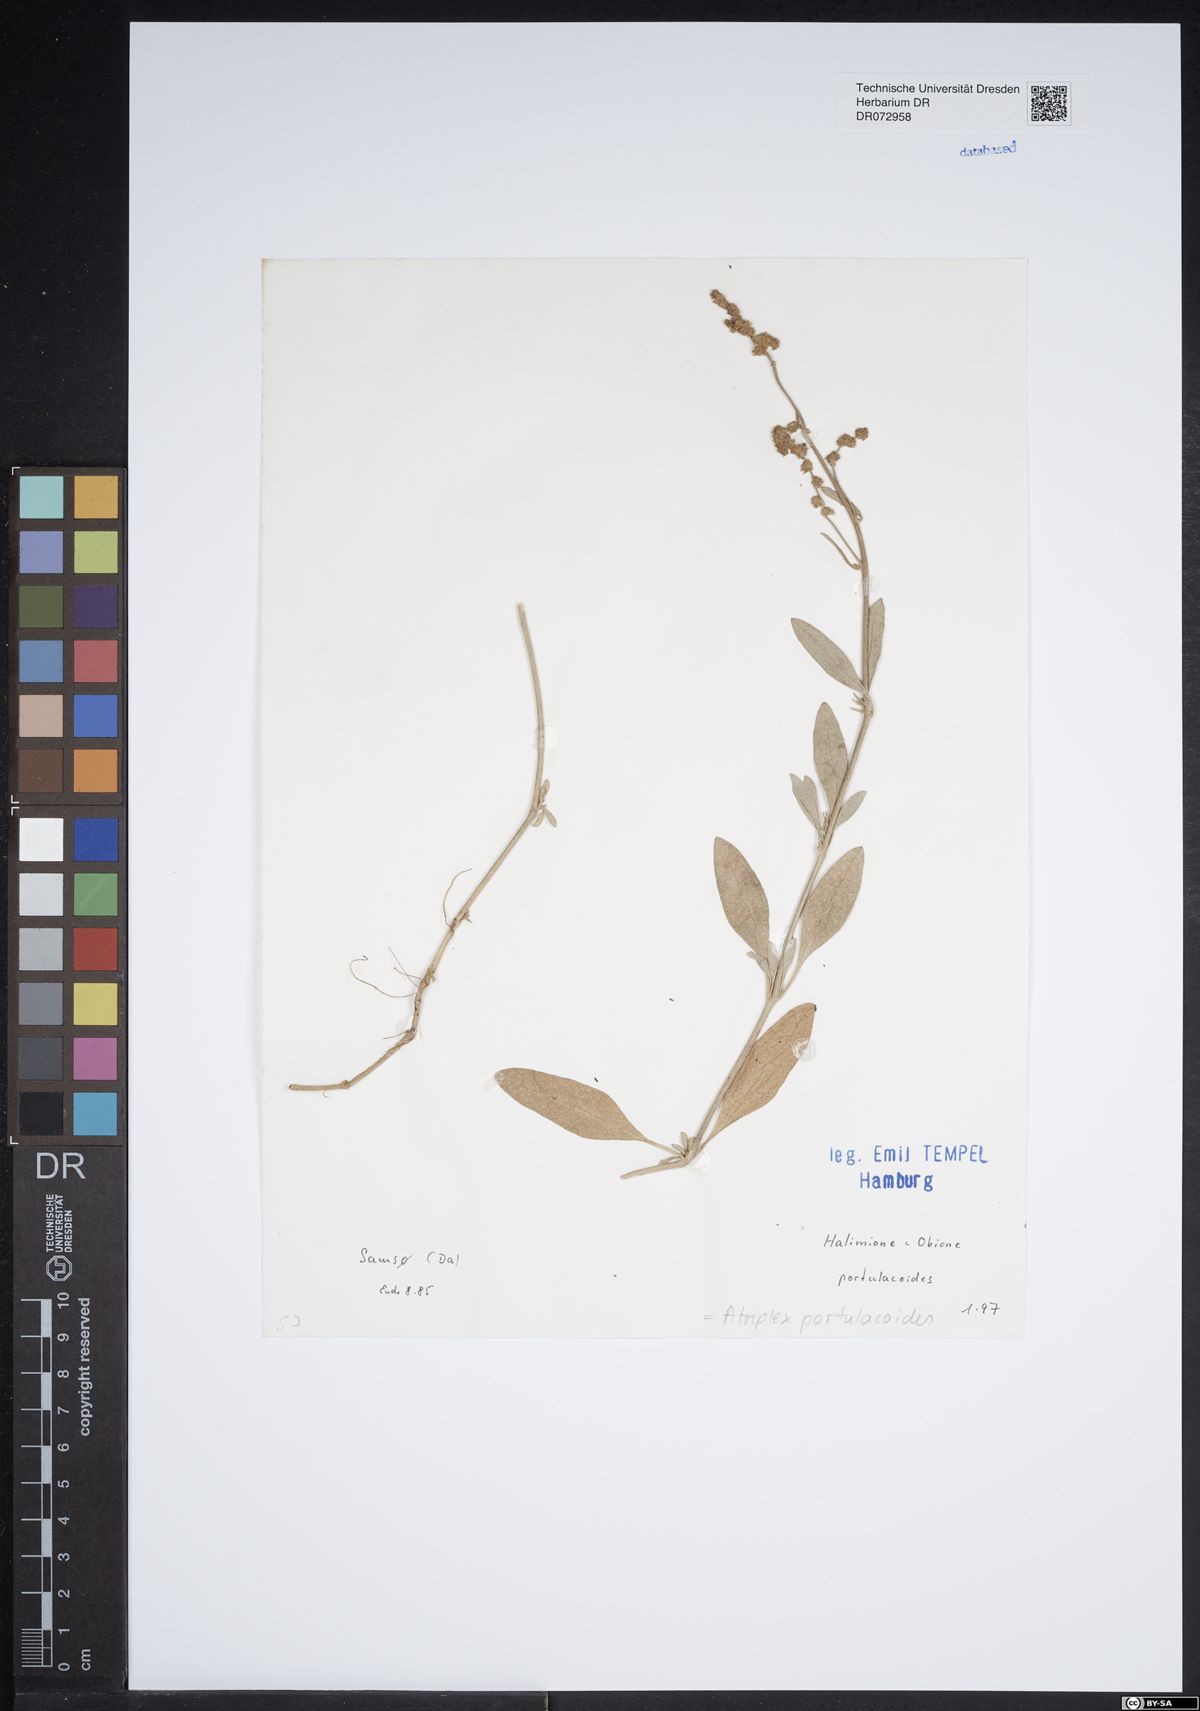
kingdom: Plantae
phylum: Tracheophyta
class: Magnoliopsida
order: Caryophyllales
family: Amaranthaceae
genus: Halimione
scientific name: Halimione portulacoides
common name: Sea-purslane
